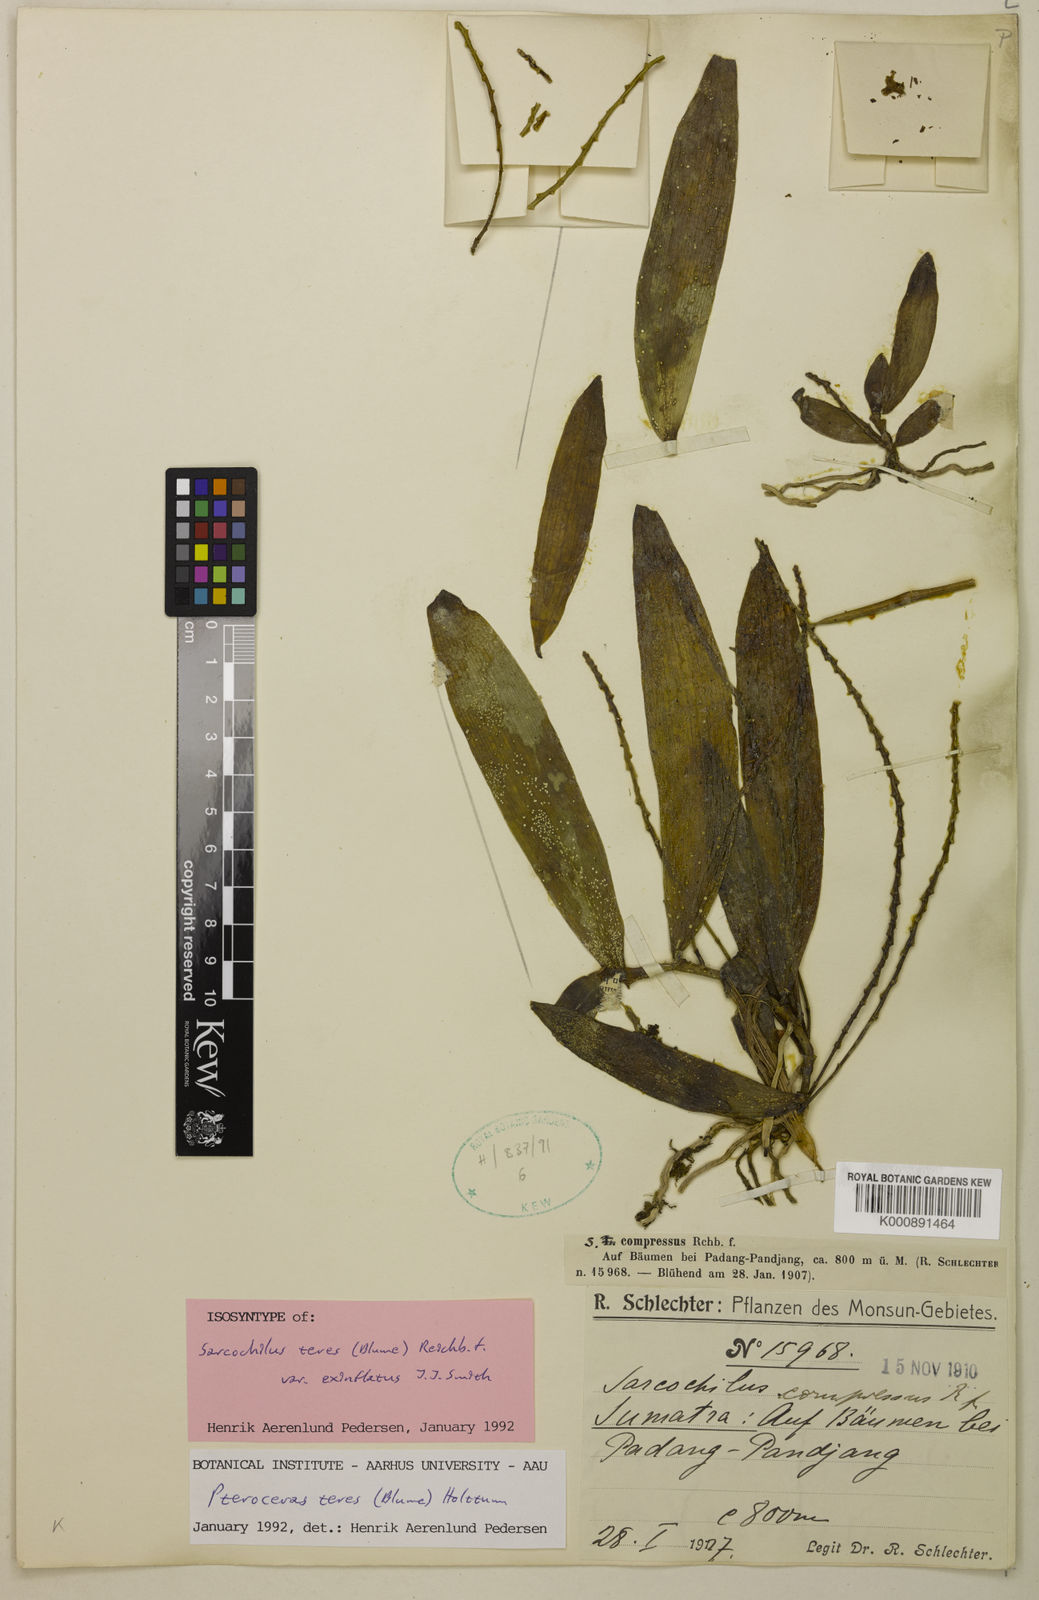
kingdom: Plantae
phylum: Tracheophyta
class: Liliopsida
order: Asparagales
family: Orchidaceae
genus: Pteroceras
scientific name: Pteroceras teres
